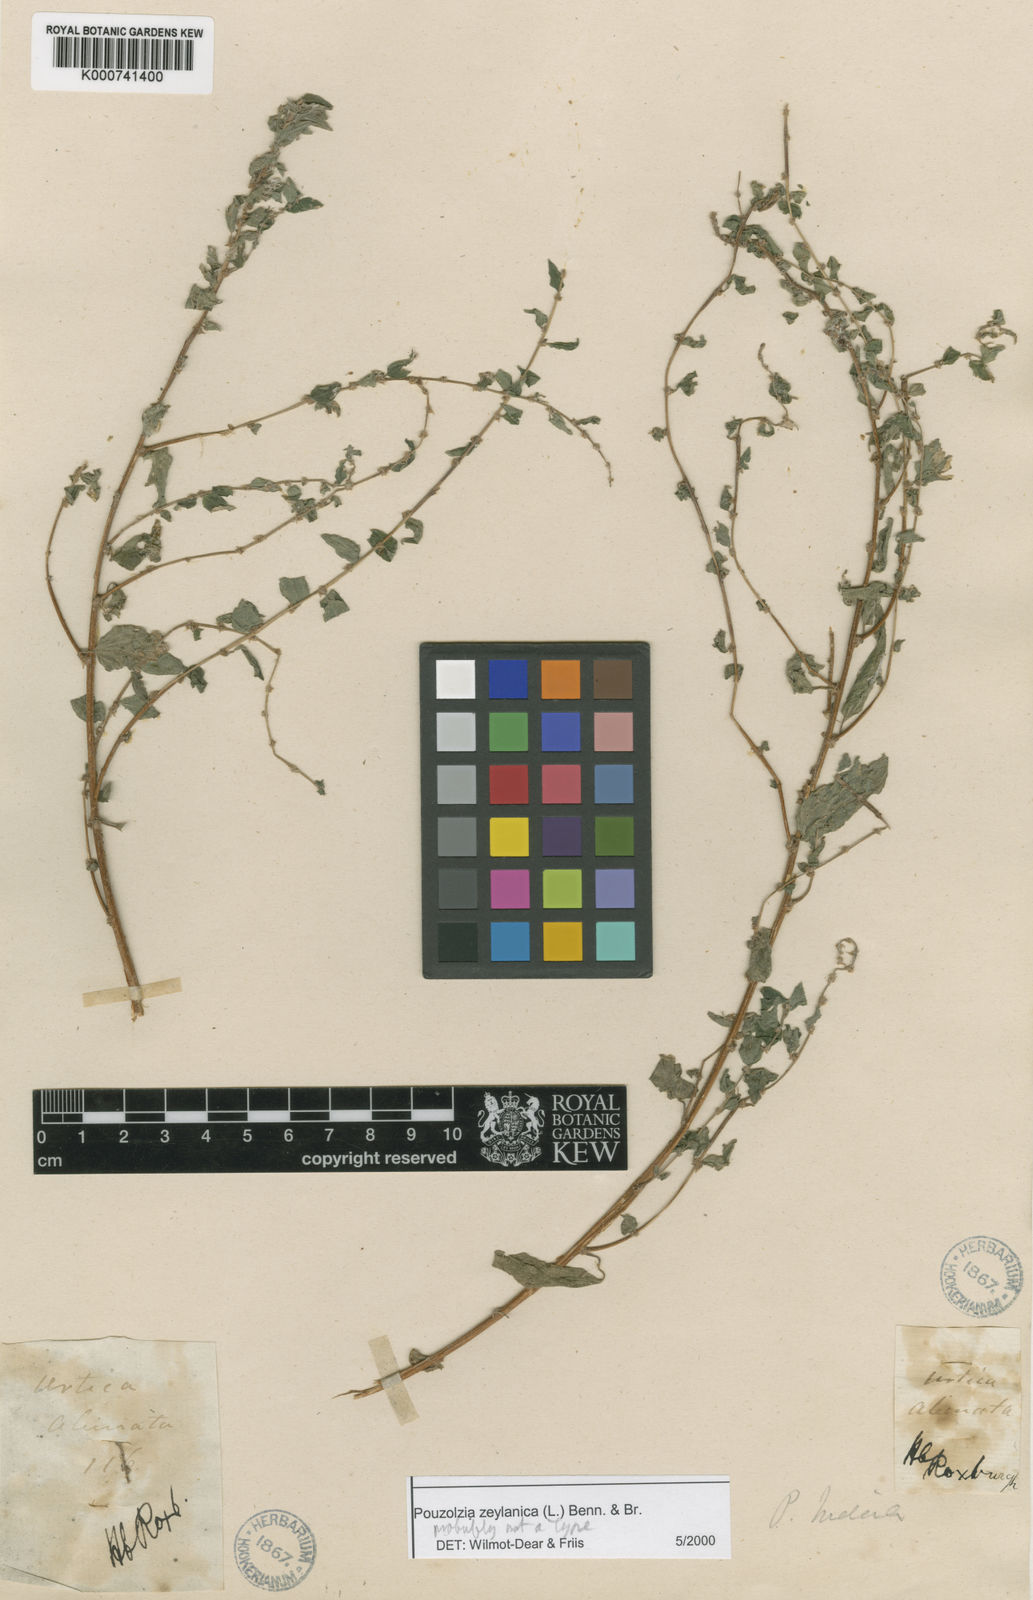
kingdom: Plantae
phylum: Tracheophyta
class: Magnoliopsida
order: Rosales
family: Urticaceae
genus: Pouzolzia
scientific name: Pouzolzia zeylanica
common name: Graceful pouzolzsbush
